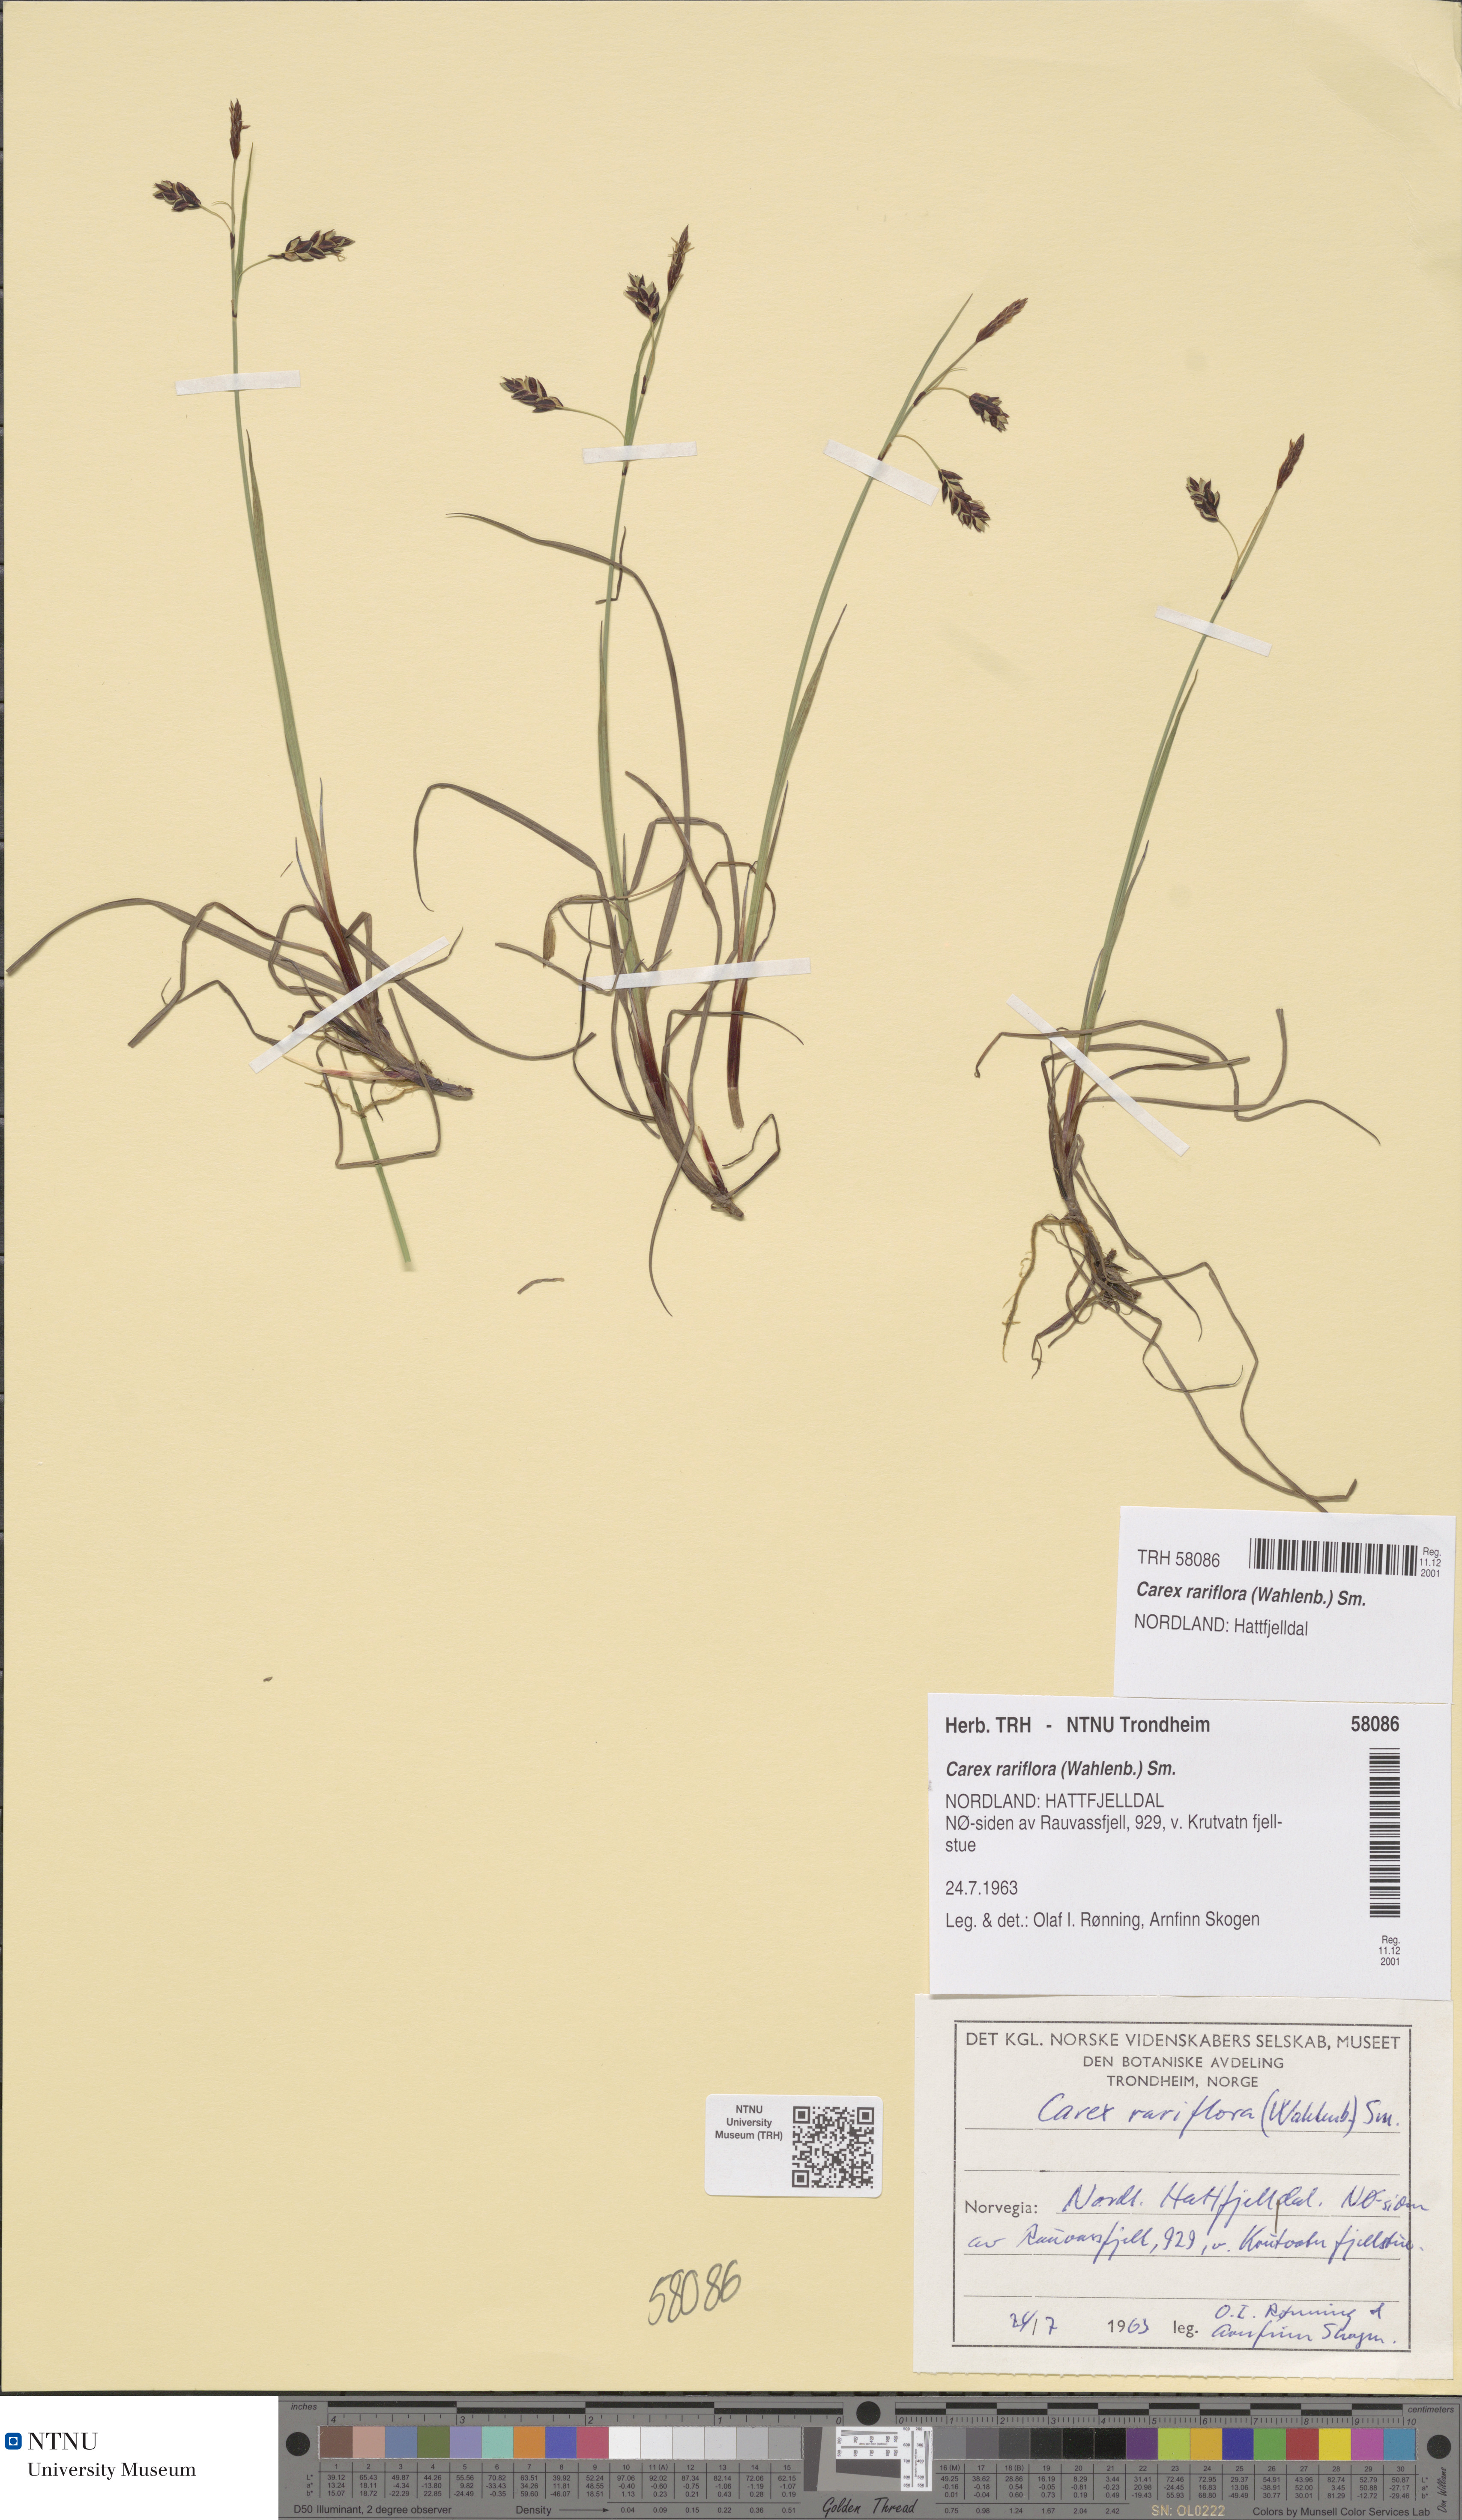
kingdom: Plantae
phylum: Tracheophyta
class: Liliopsida
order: Poales
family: Cyperaceae
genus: Carex
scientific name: Carex rariflora
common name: Loose-flowered alpine sedge
